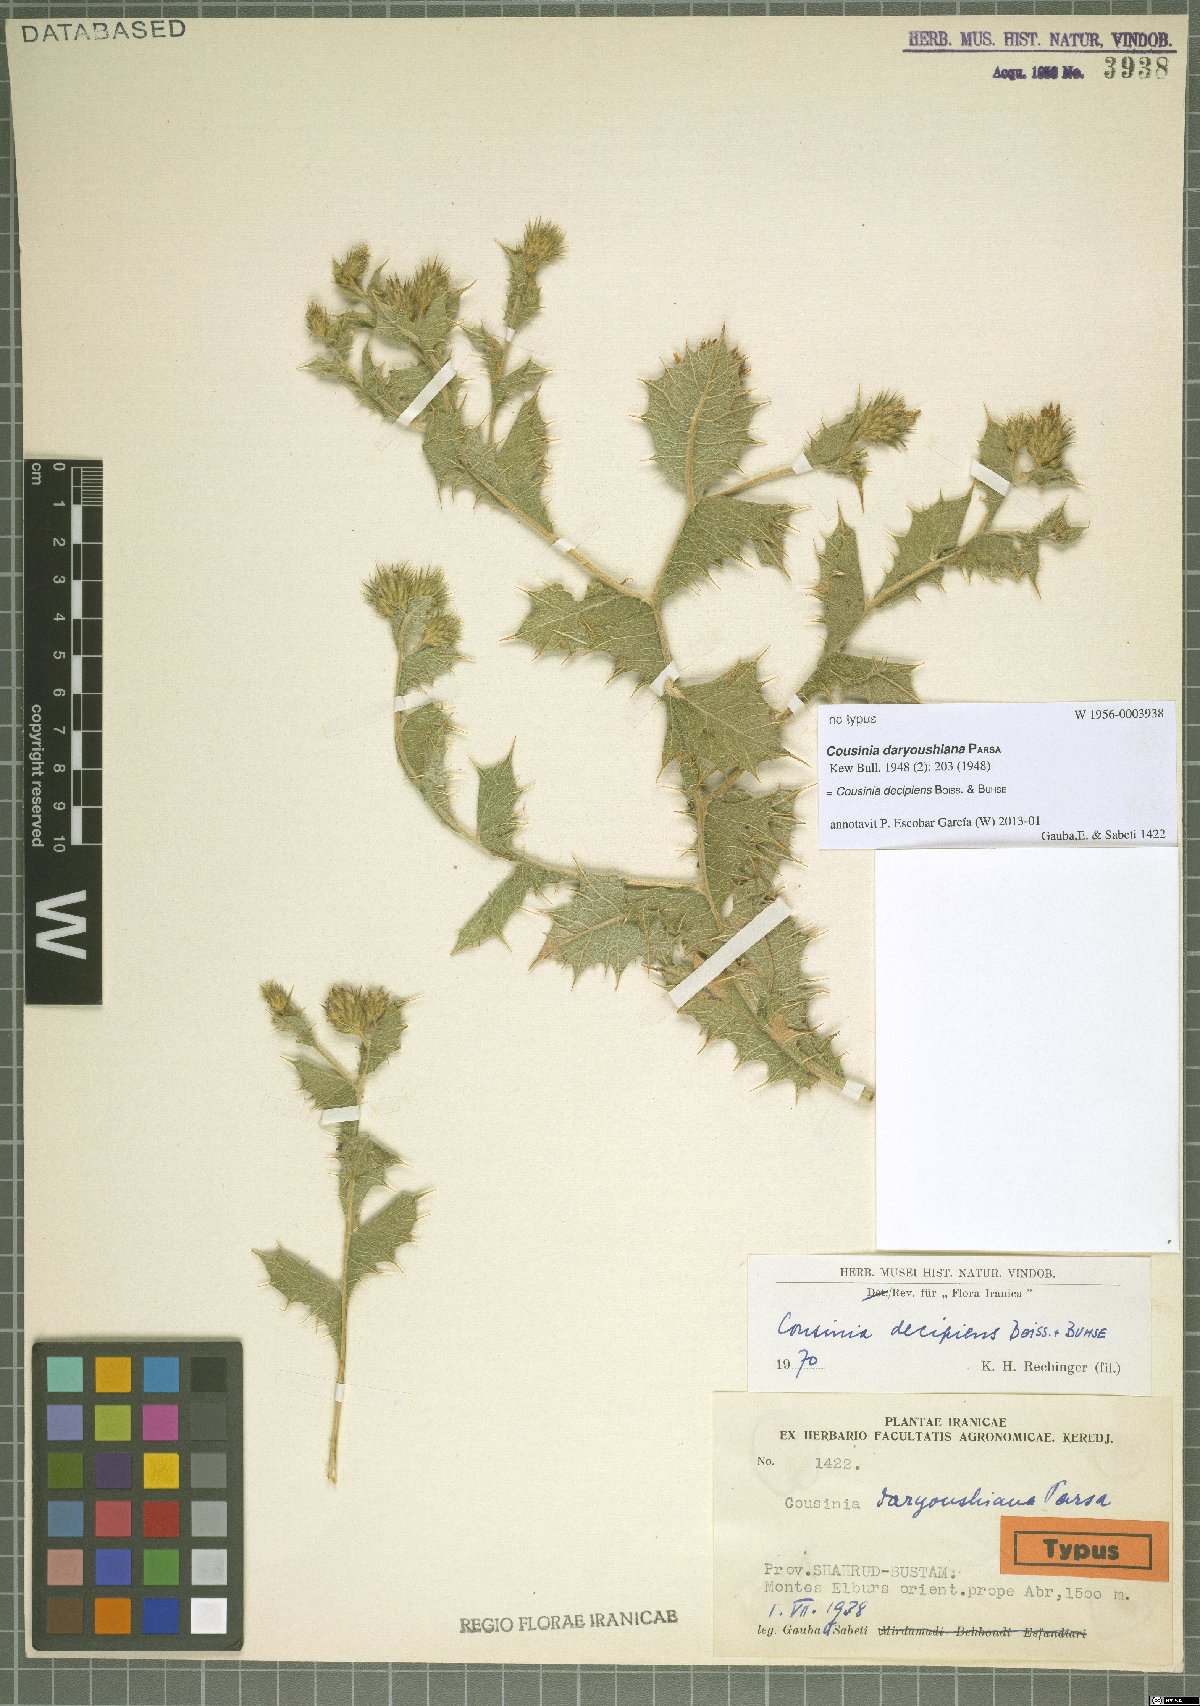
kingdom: Plantae
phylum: Tracheophyta
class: Magnoliopsida
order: Asterales
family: Asteraceae
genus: Cousinia
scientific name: Cousinia decipiens
